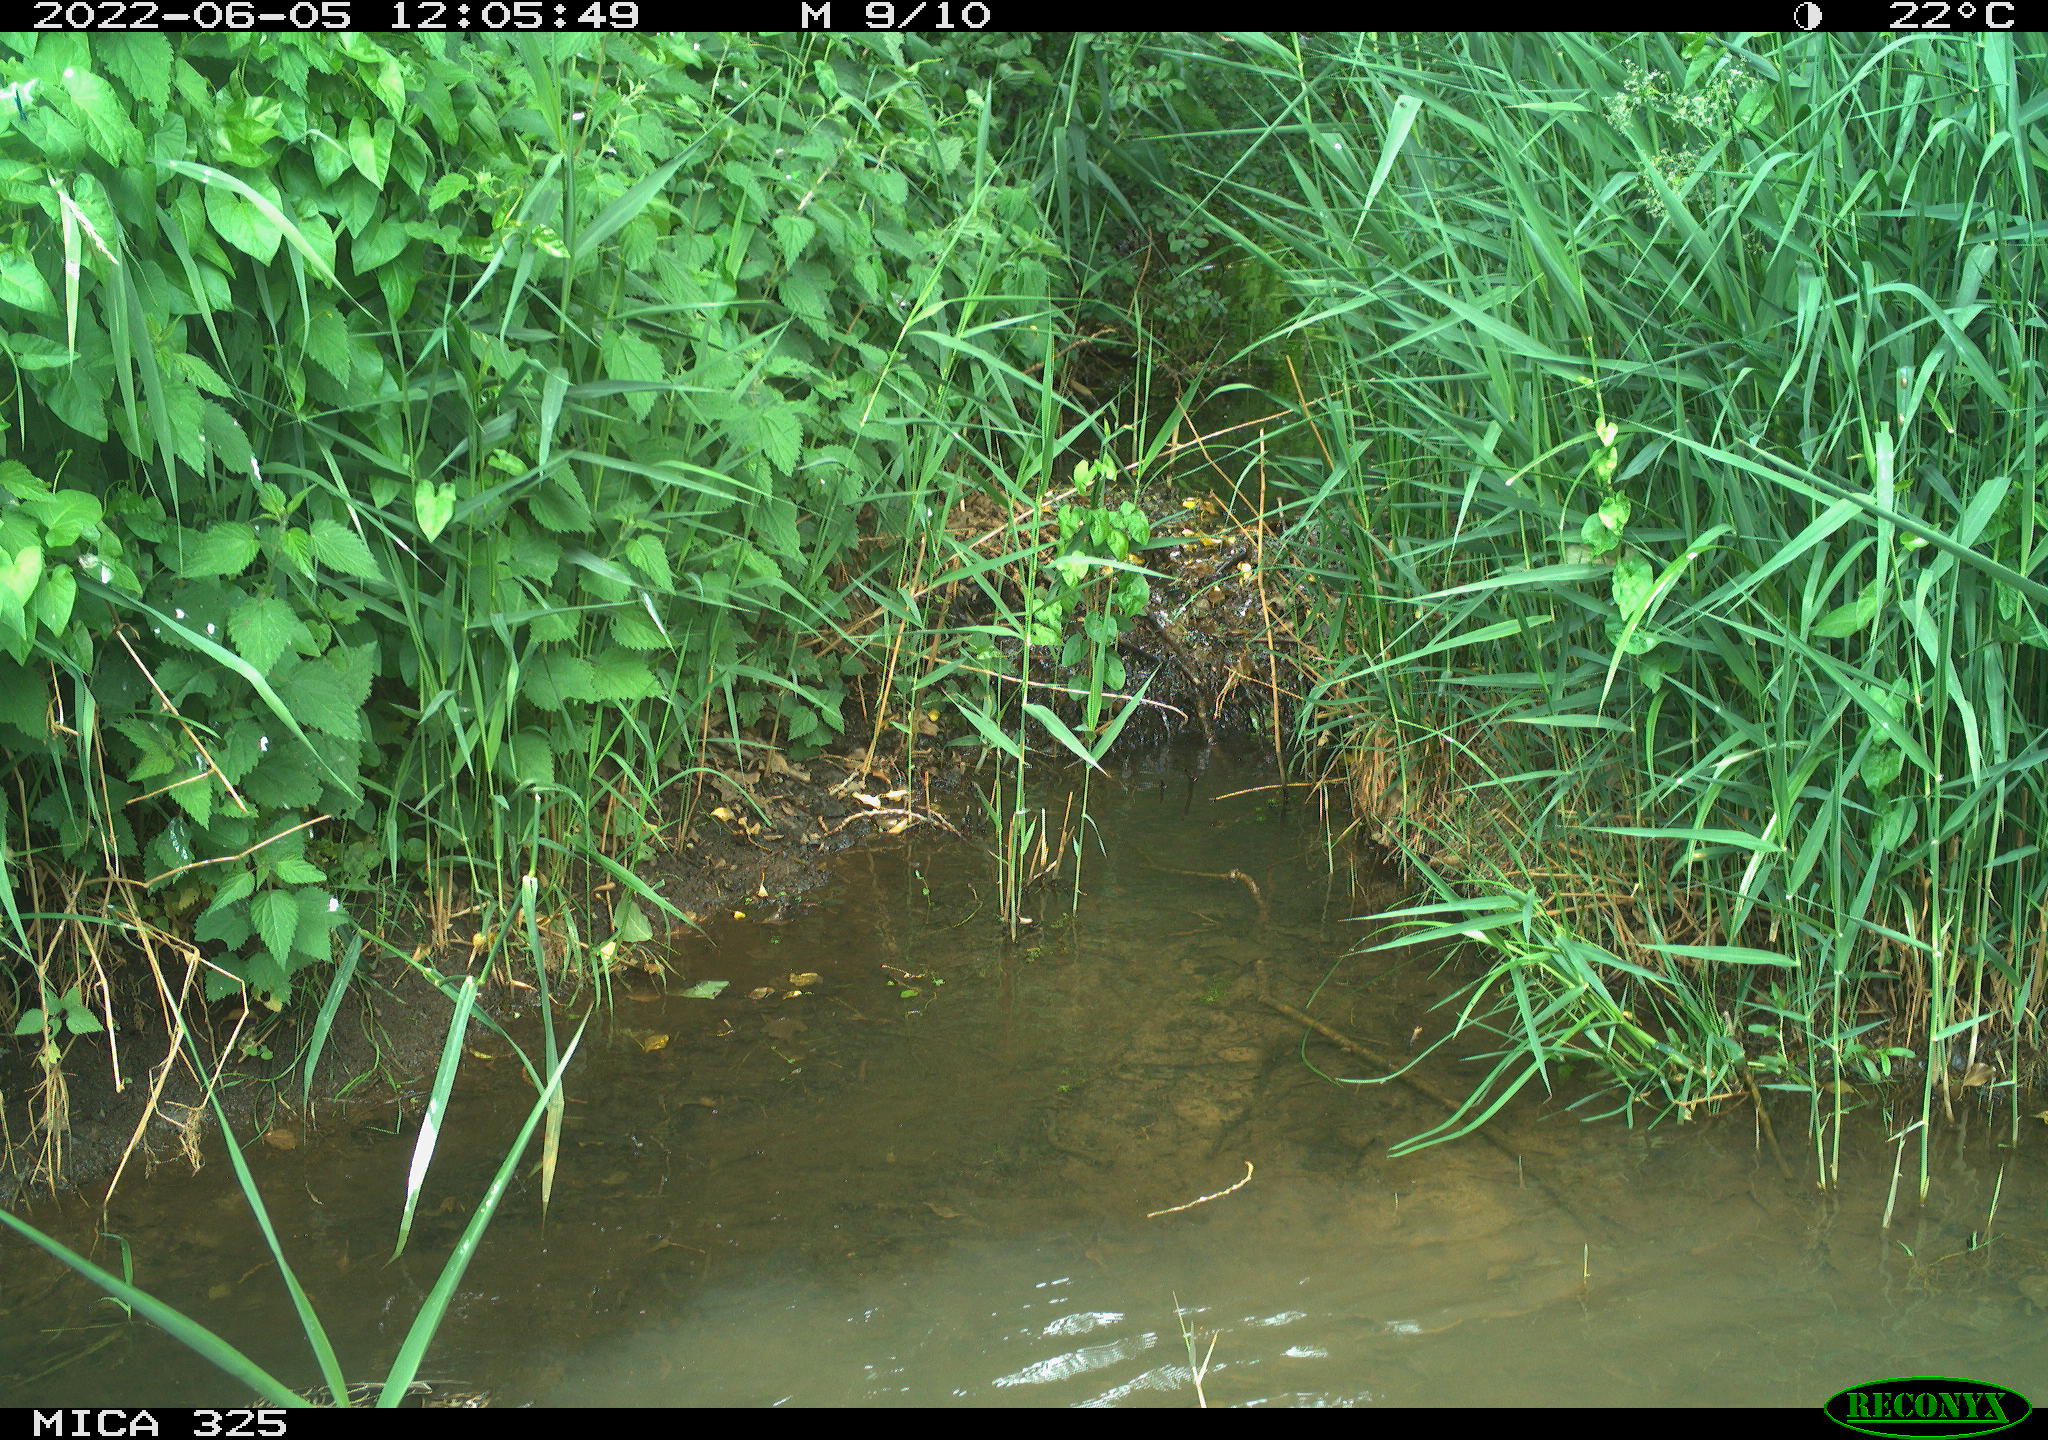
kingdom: Animalia
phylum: Chordata
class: Aves
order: Anseriformes
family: Anatidae
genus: Anas
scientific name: Anas platyrhynchos
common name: Mallard
